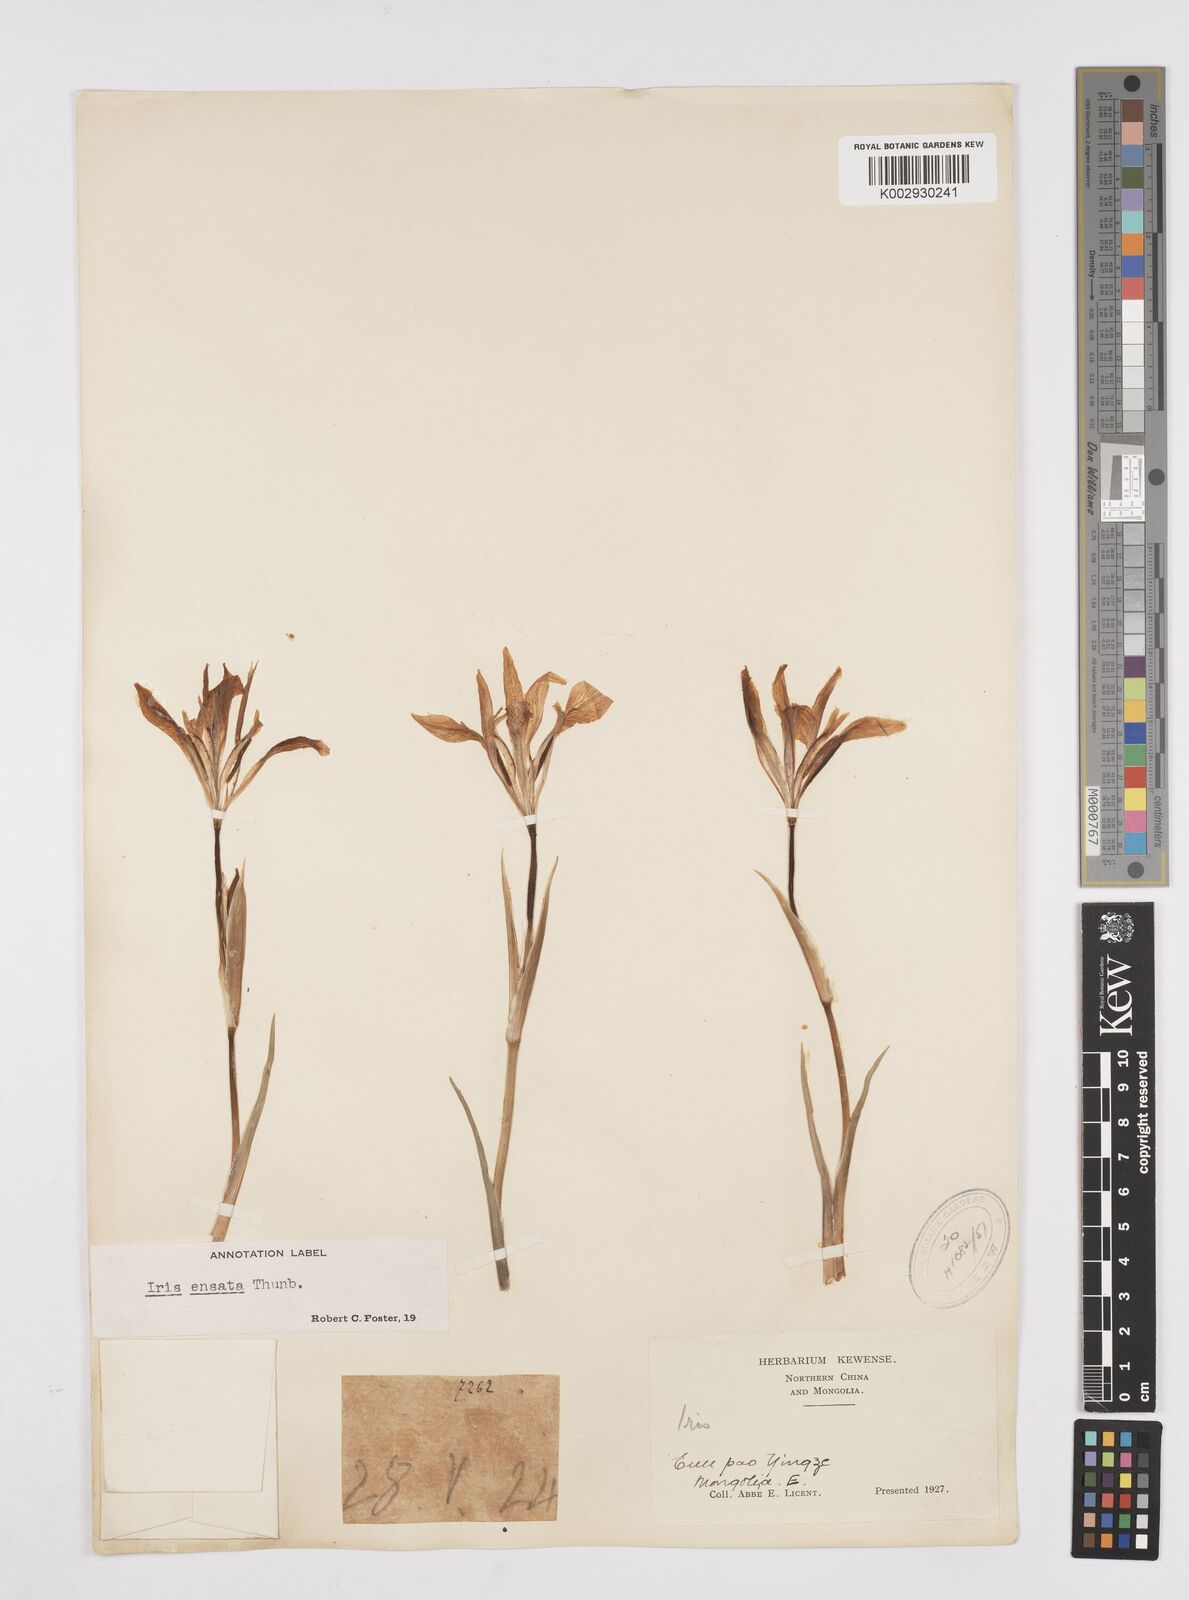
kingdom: Plantae
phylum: Tracheophyta
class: Liliopsida
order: Asparagales
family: Iridaceae
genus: Iris
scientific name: Iris lactea
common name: White-flower chinese iris
